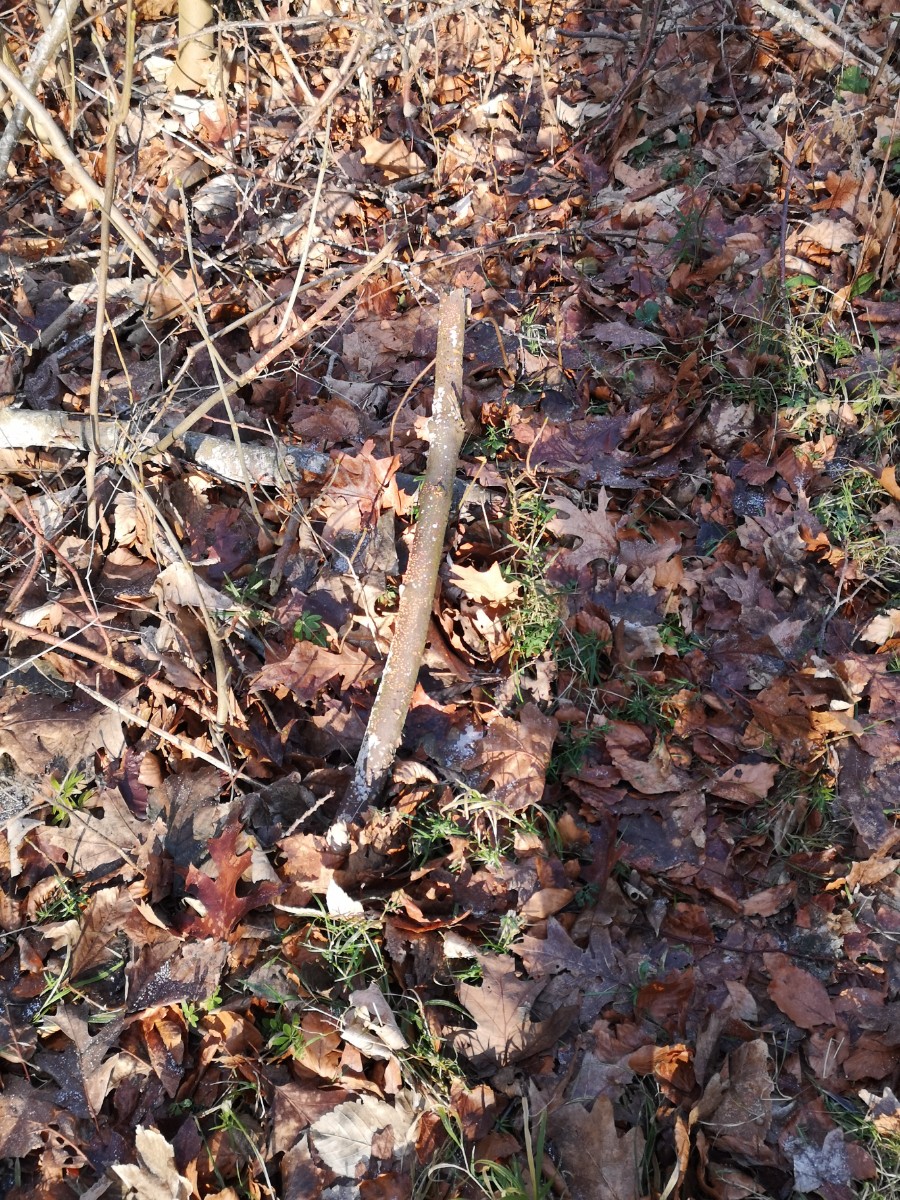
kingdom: Fungi
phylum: Ascomycota
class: Sordariomycetes
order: Hypocreales
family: Nectriaceae
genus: Nectria
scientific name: Nectria cinnabarina
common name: almindelig cinnobersvamp
